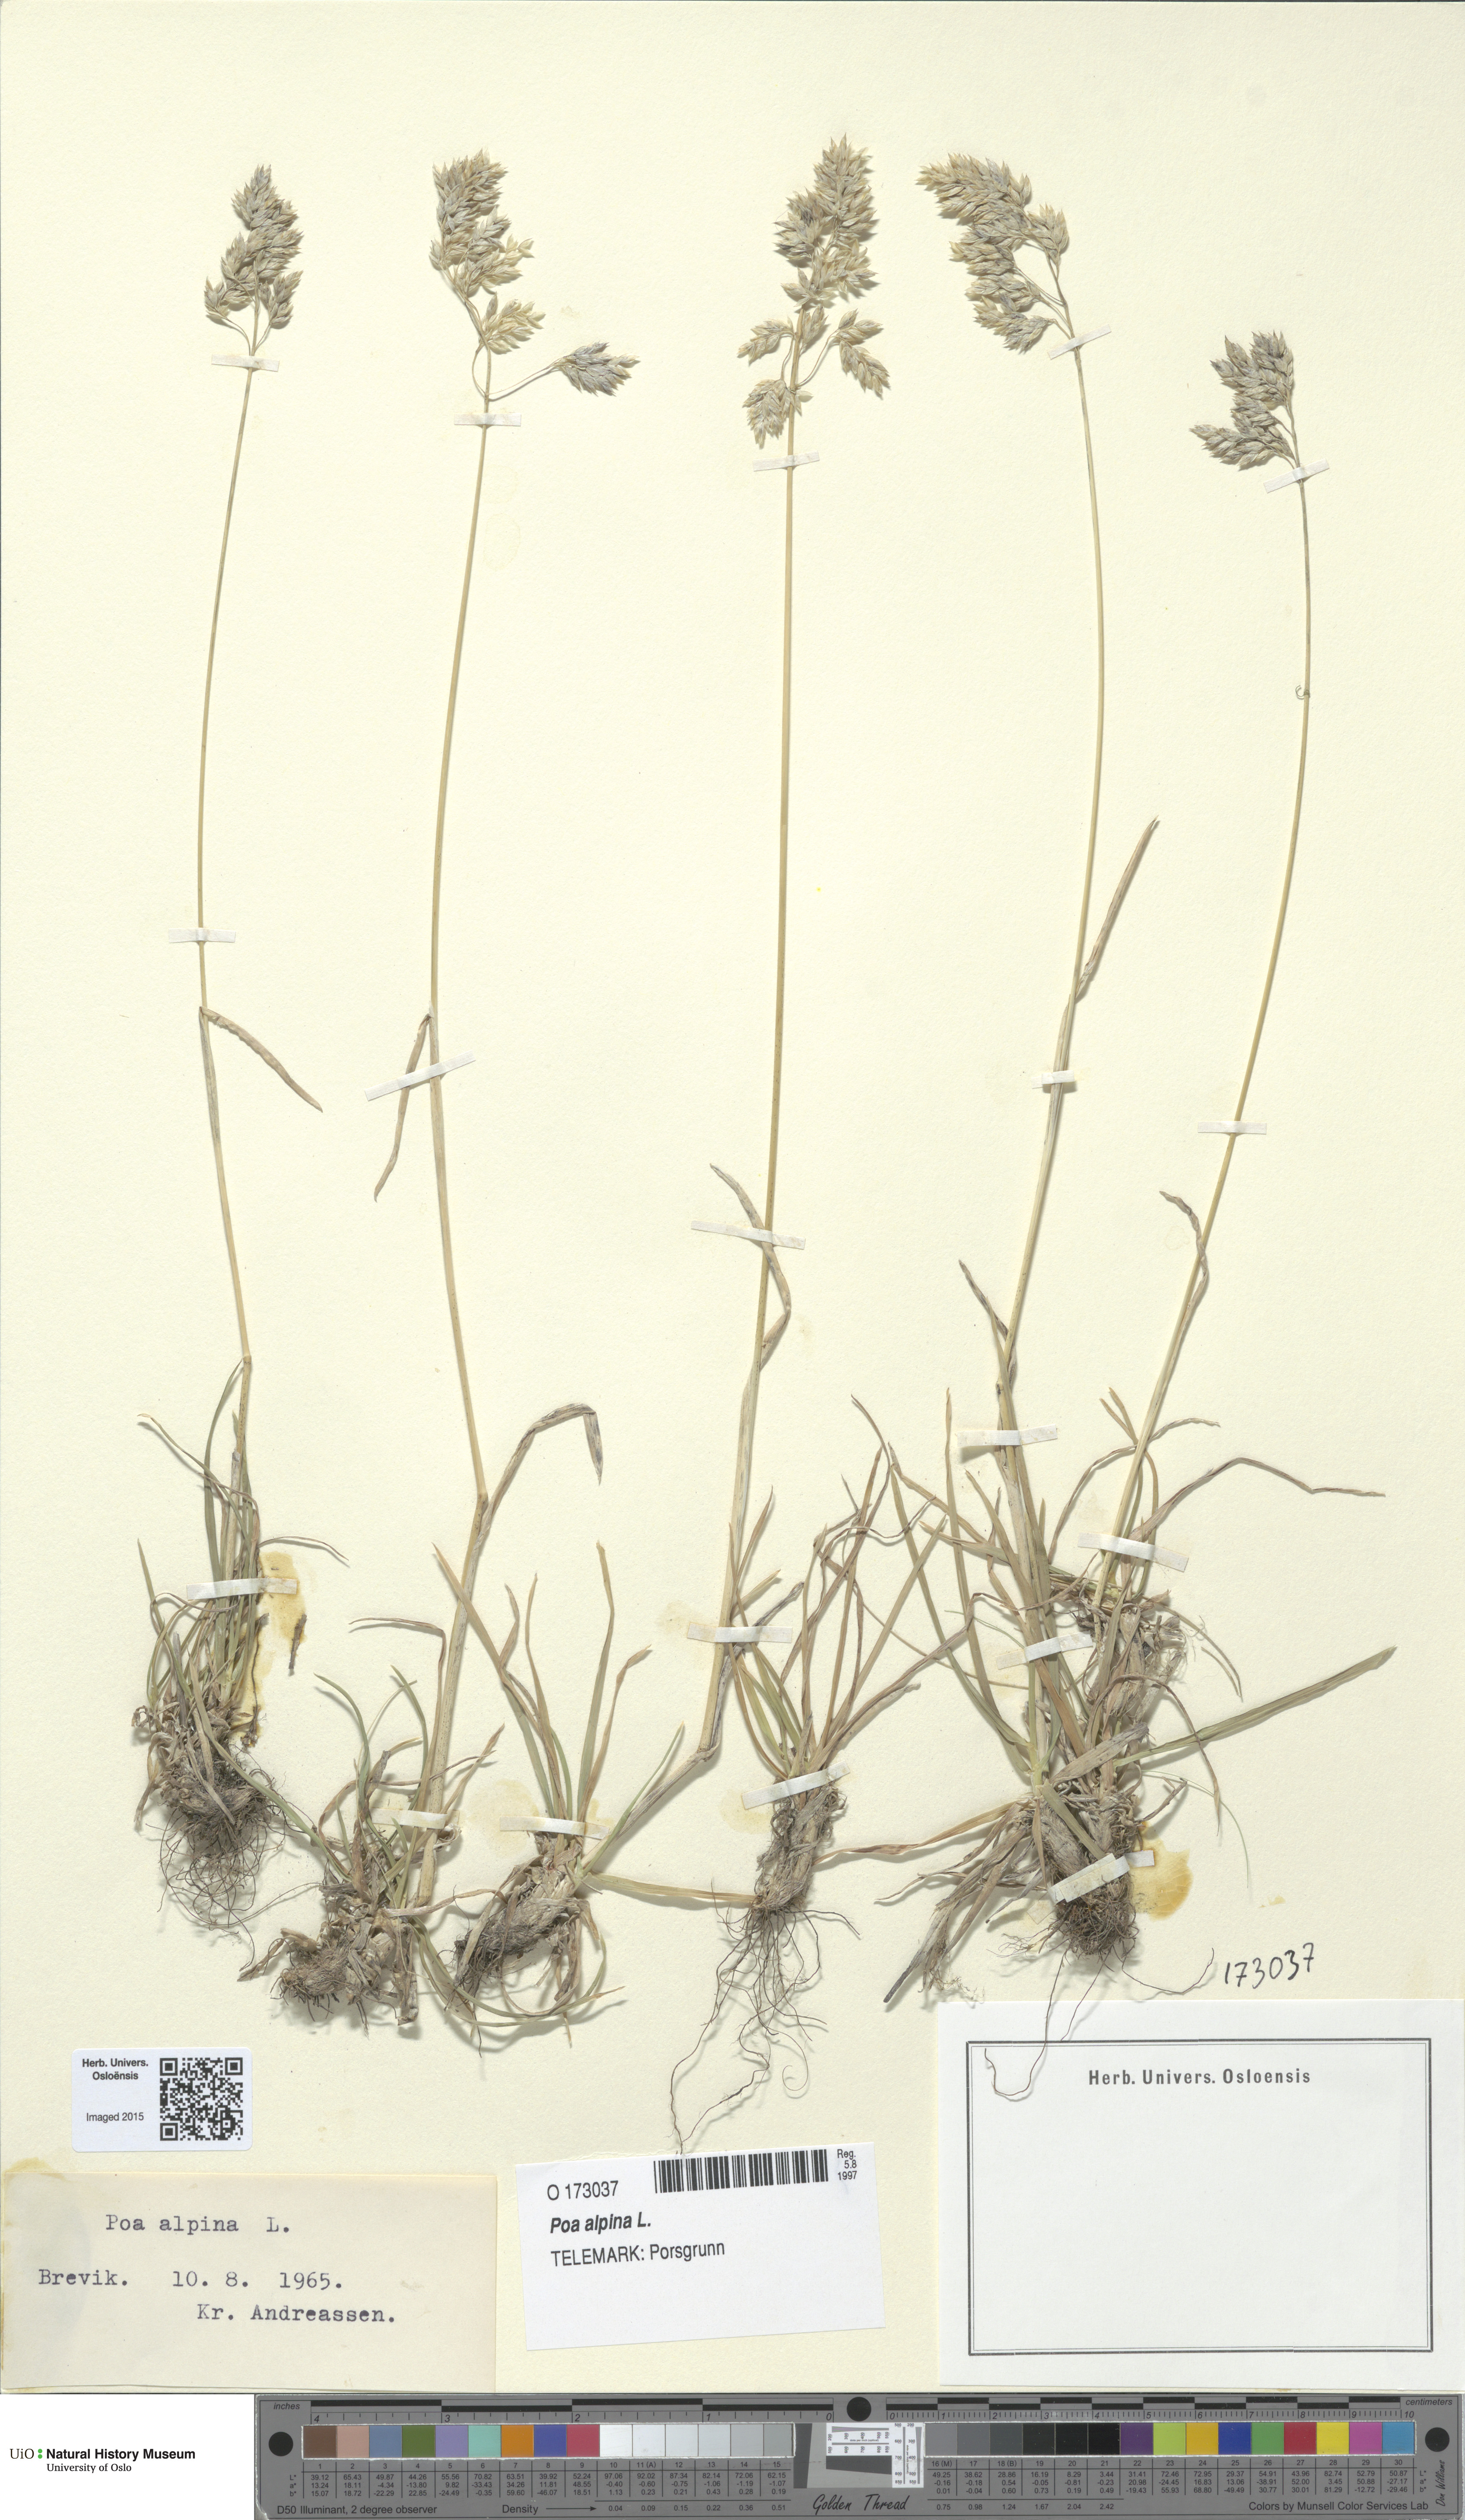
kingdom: Plantae
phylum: Tracheophyta
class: Liliopsida
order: Poales
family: Poaceae
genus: Poa
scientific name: Poa alpina
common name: Alpine bluegrass
